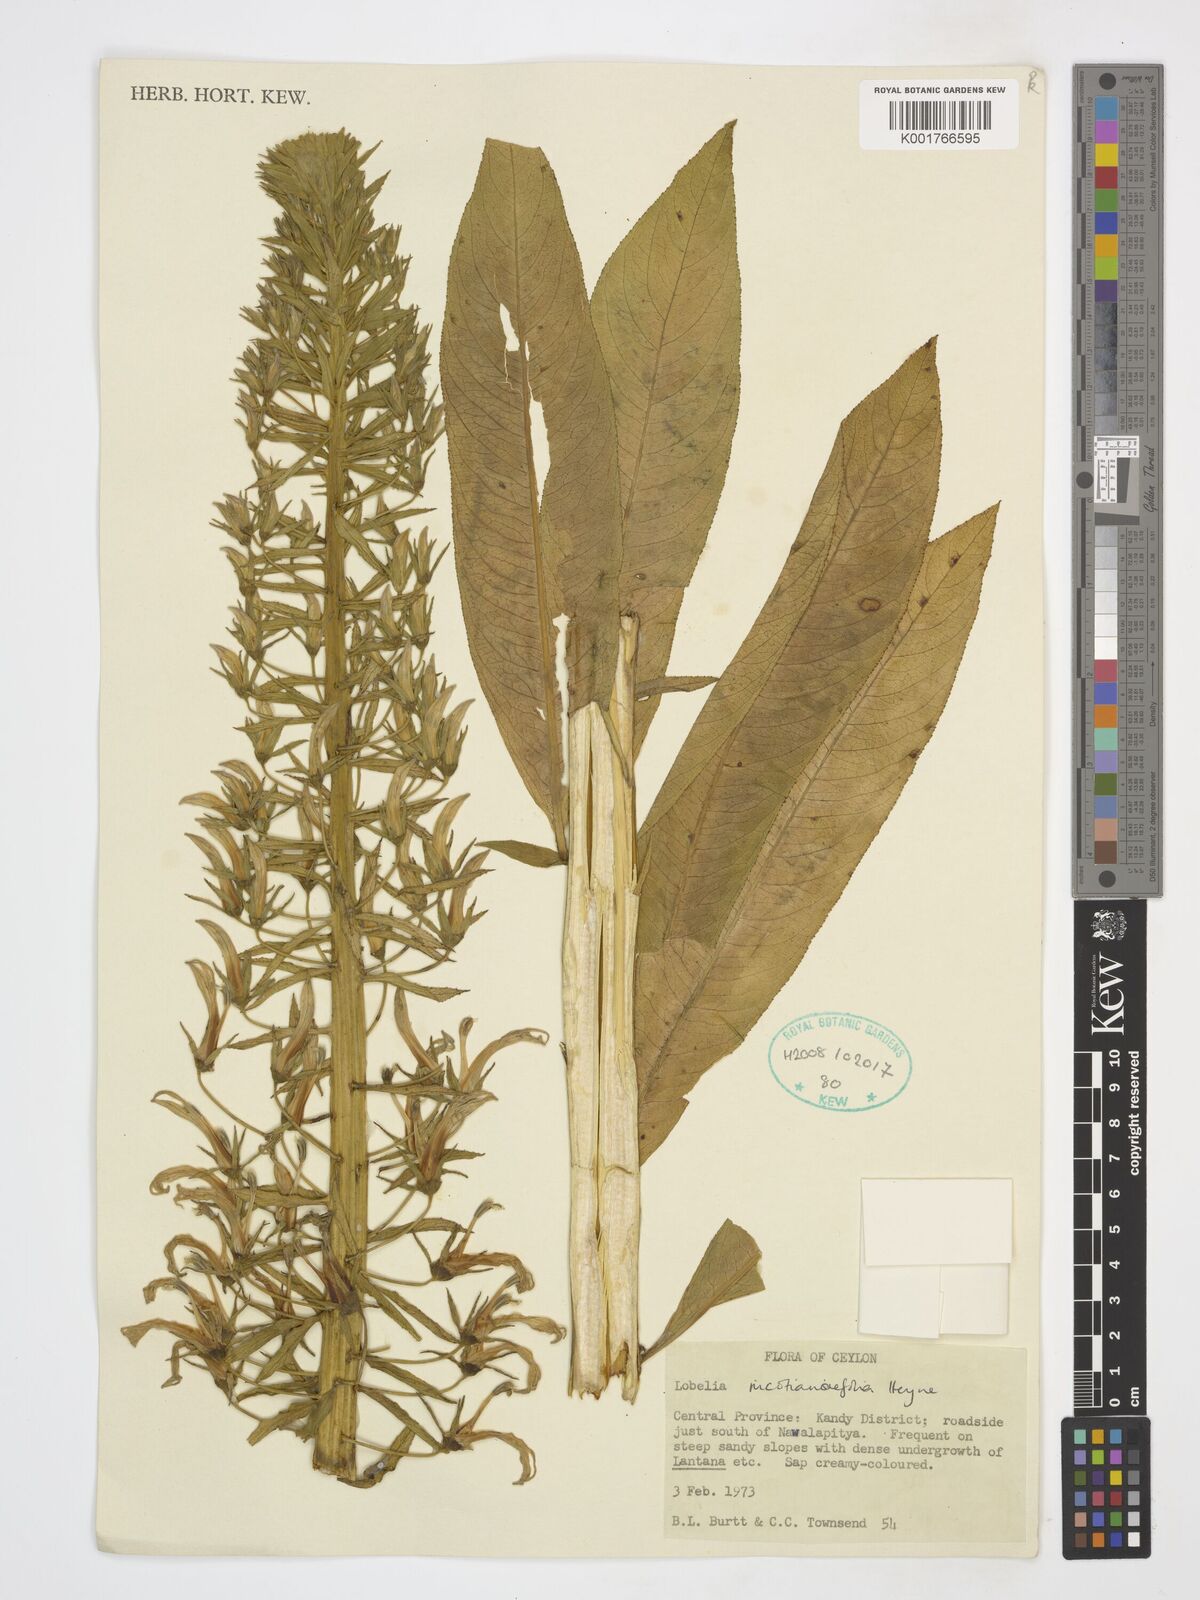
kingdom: Plantae
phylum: Tracheophyta
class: Magnoliopsida
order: Asterales
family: Campanulaceae
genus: Lobelia
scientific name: Lobelia nicotianifolia
